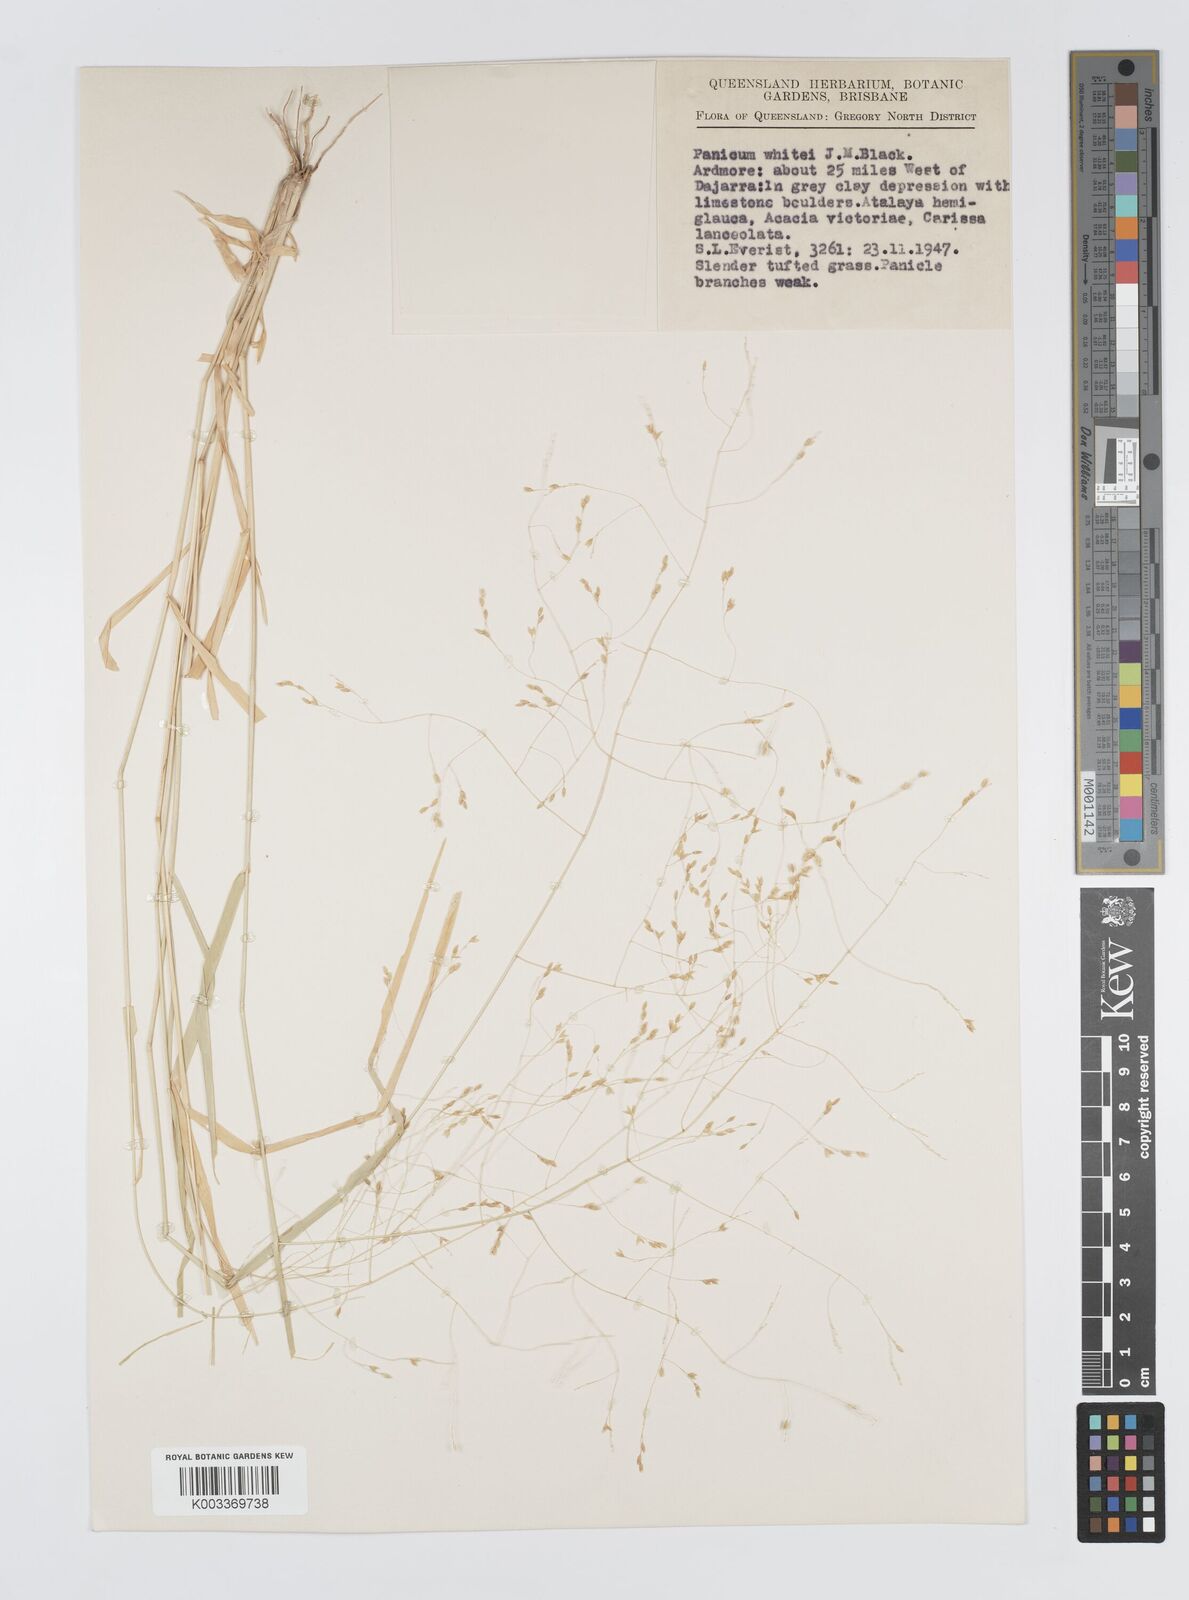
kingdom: Plantae
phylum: Tracheophyta
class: Liliopsida
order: Poales
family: Poaceae
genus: Panicum
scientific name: Panicum laevinode
